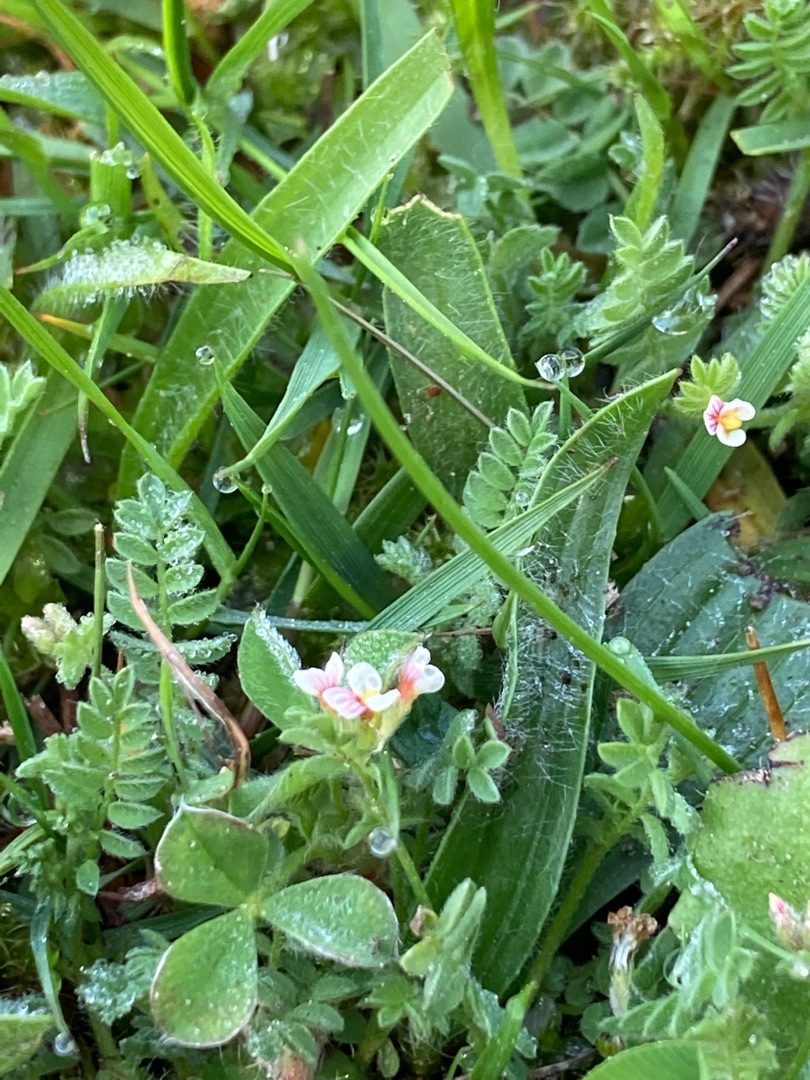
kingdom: Plantae
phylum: Tracheophyta
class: Magnoliopsida
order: Fabales
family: Fabaceae
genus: Ornithopus
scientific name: Ornithopus perpusillus
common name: Liden fugleklo
